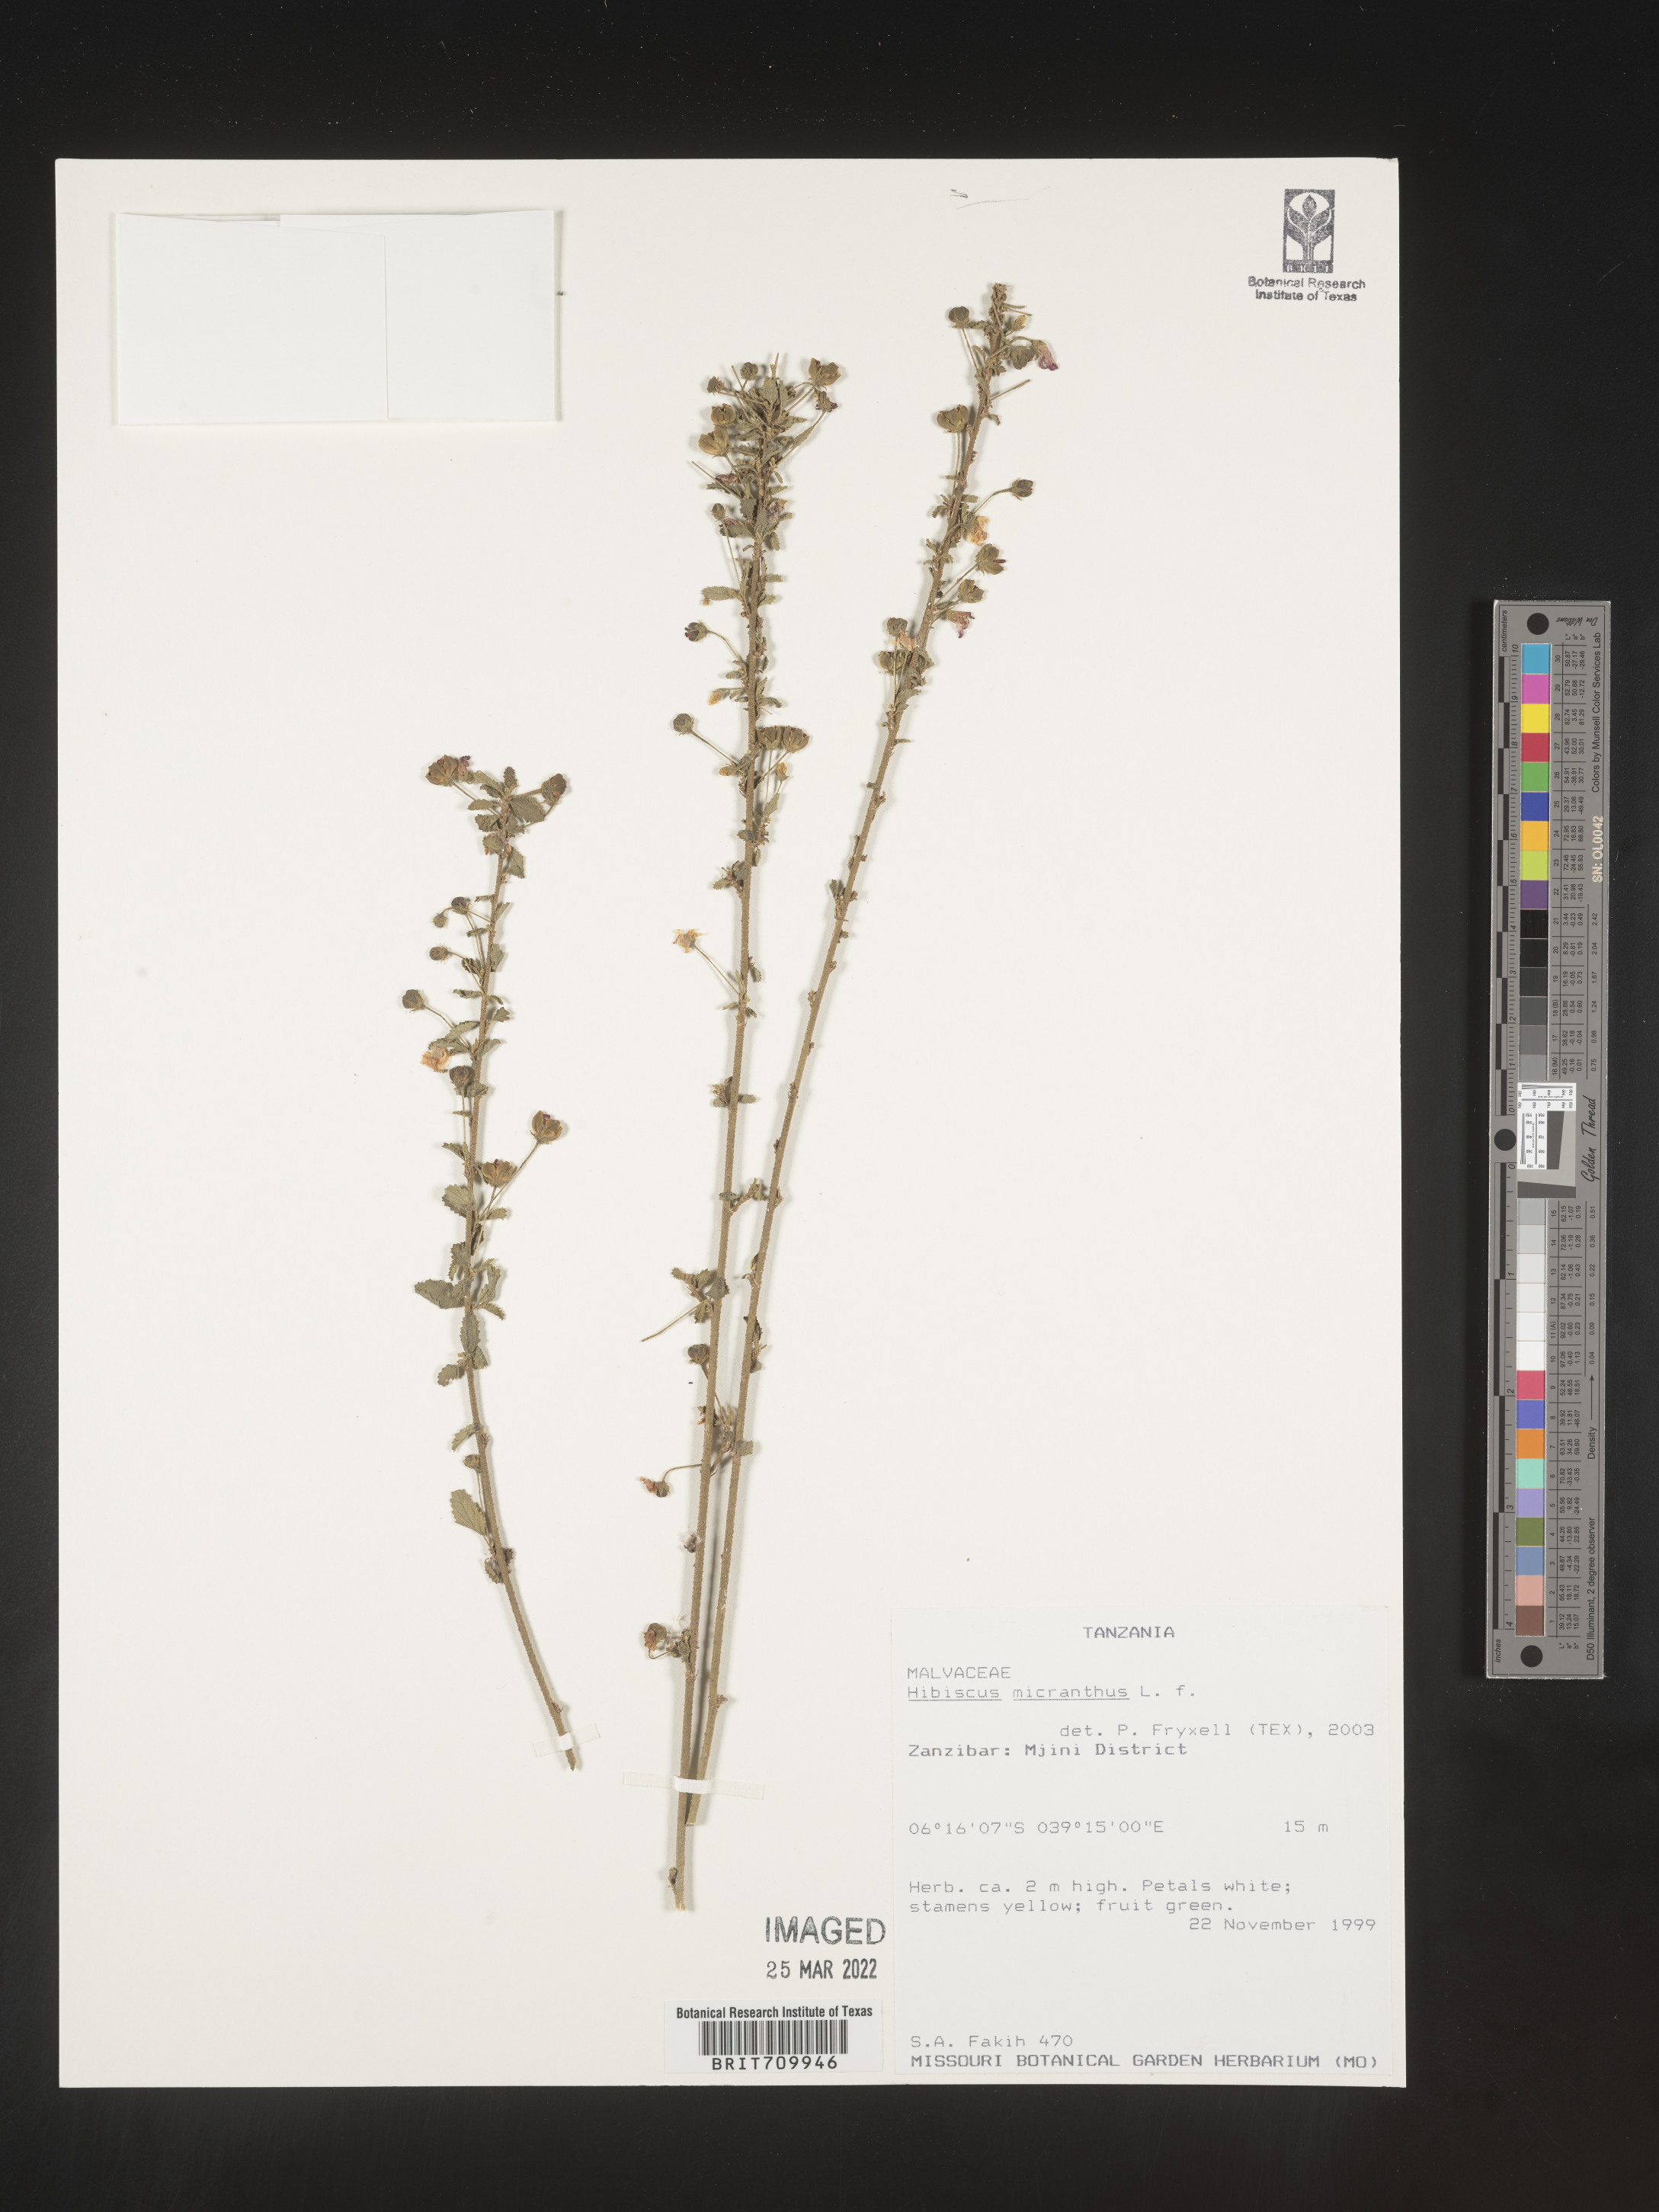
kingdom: Plantae
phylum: Tracheophyta
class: Magnoliopsida
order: Malvales
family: Malvaceae
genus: Hibiscus
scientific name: Hibiscus
